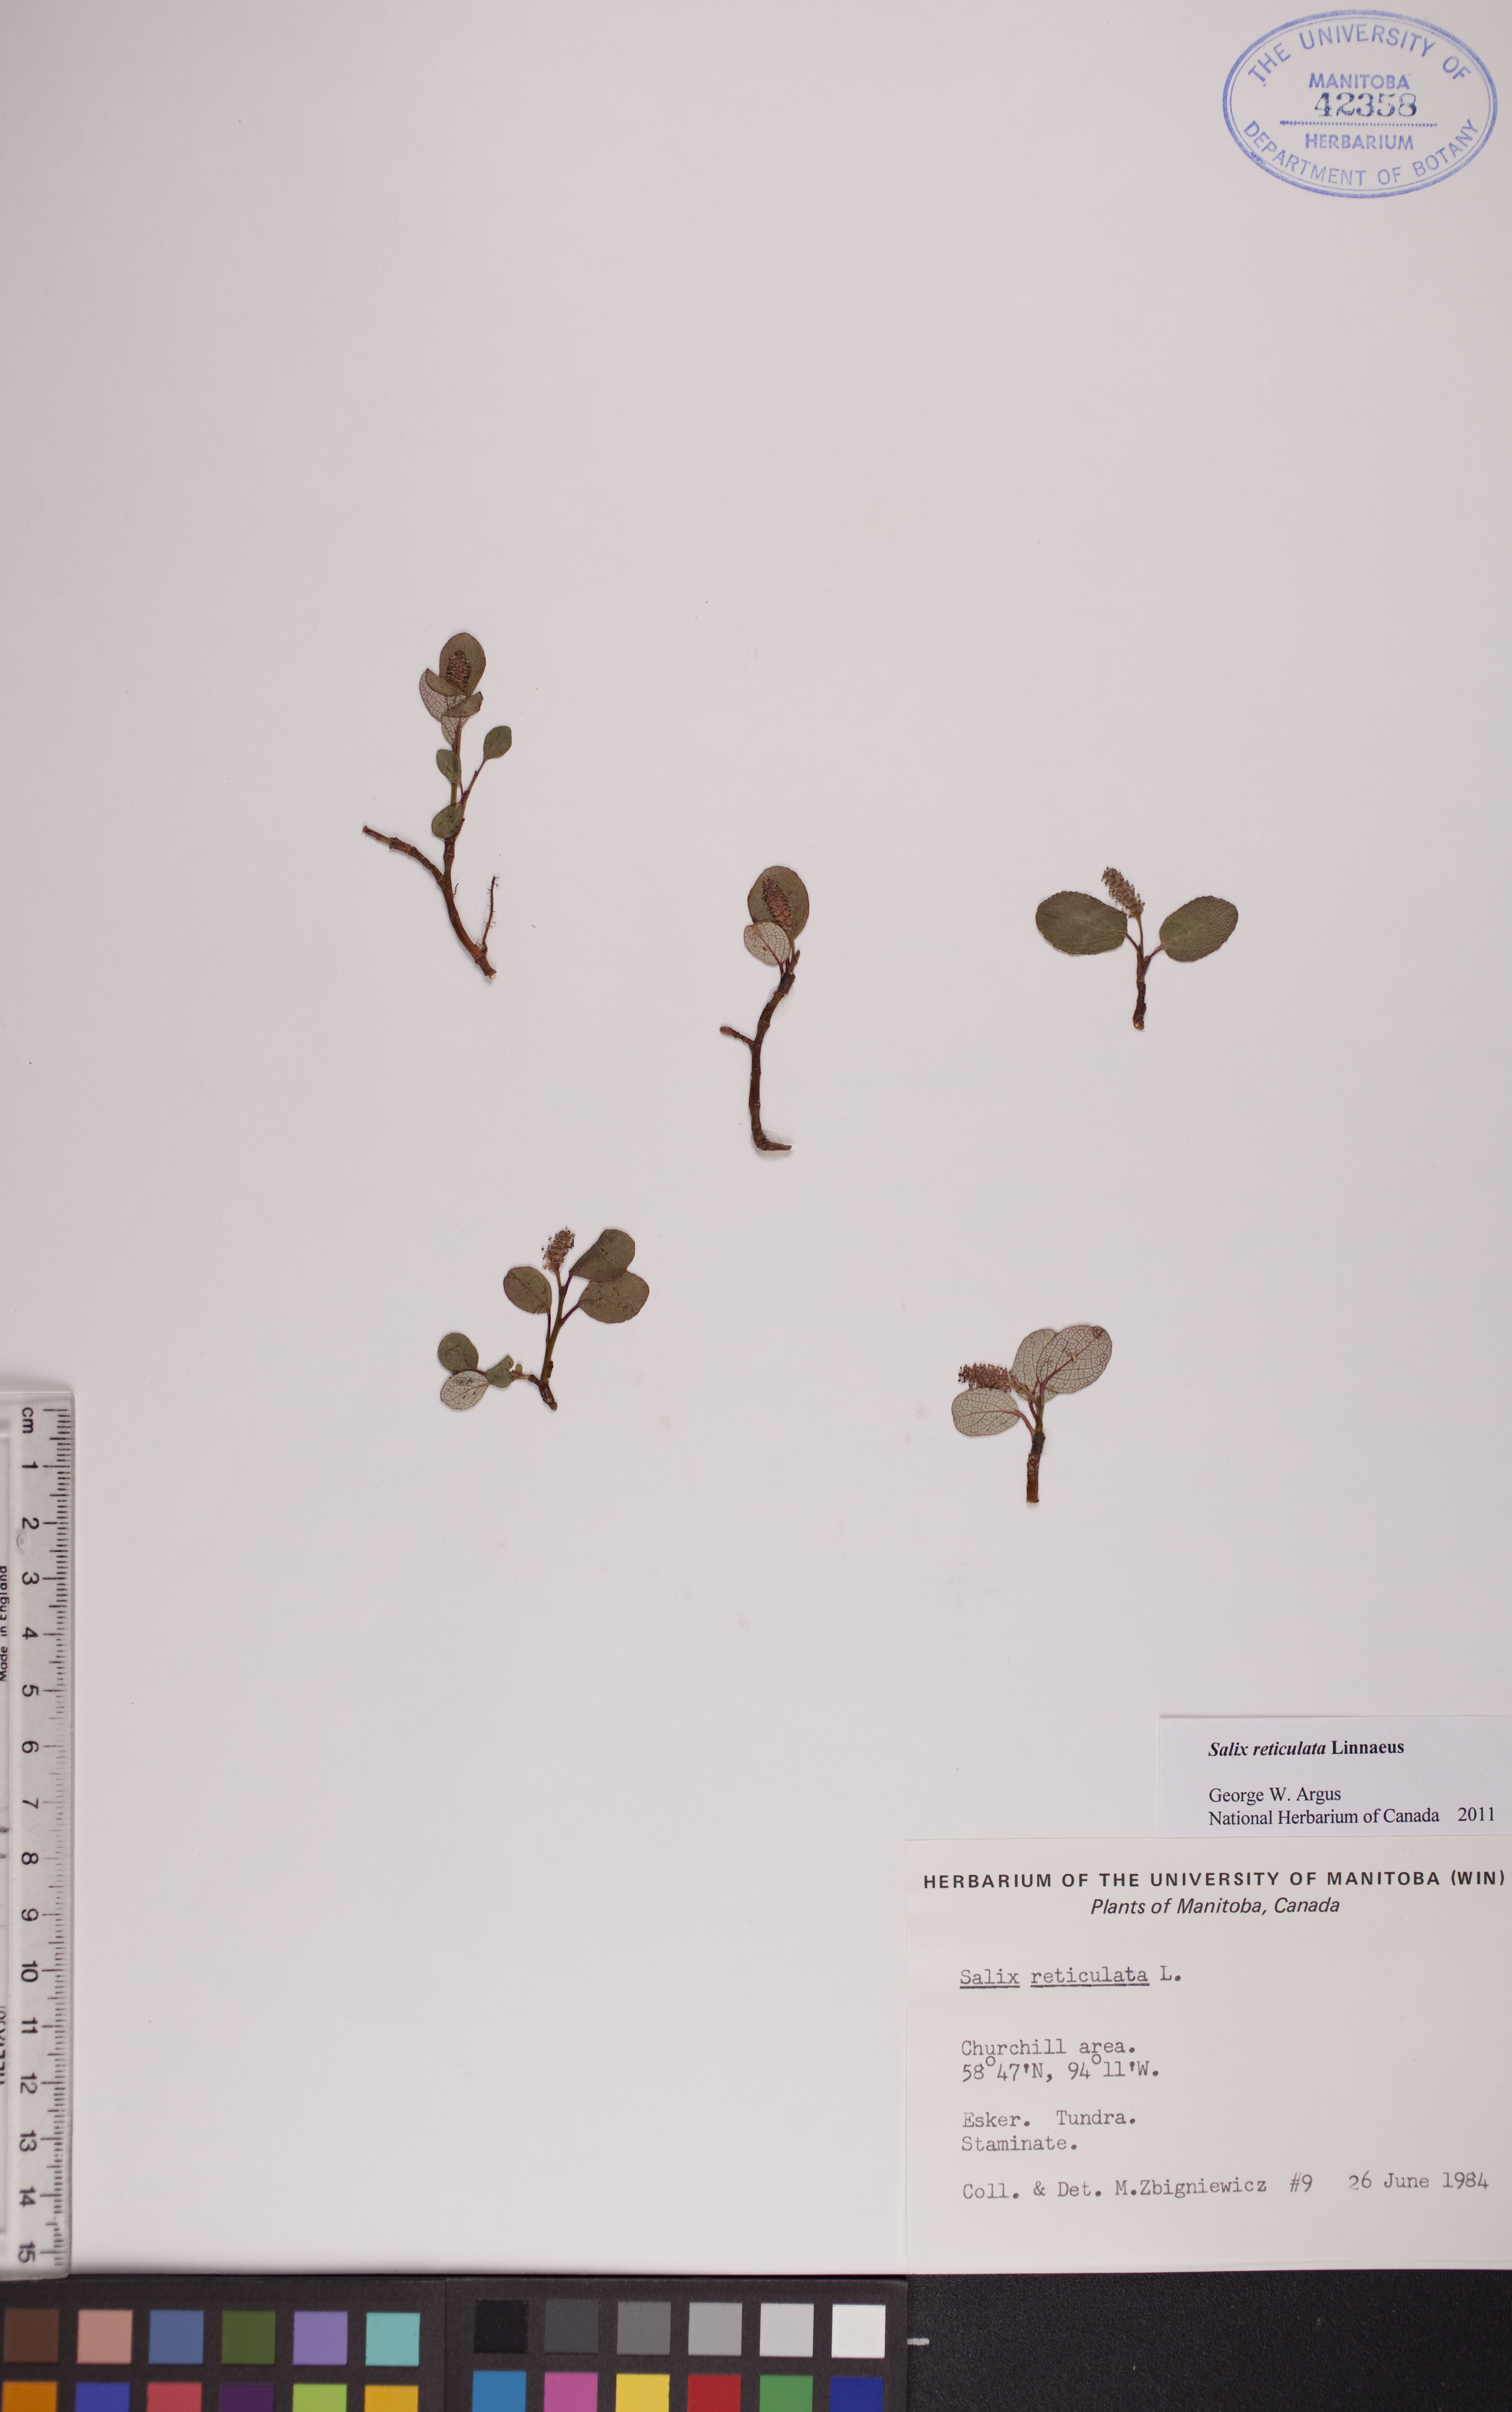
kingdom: Plantae
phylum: Tracheophyta
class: Magnoliopsida
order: Malpighiales
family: Salicaceae
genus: Salix
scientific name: Salix reticulata
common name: Net-leaved willow
